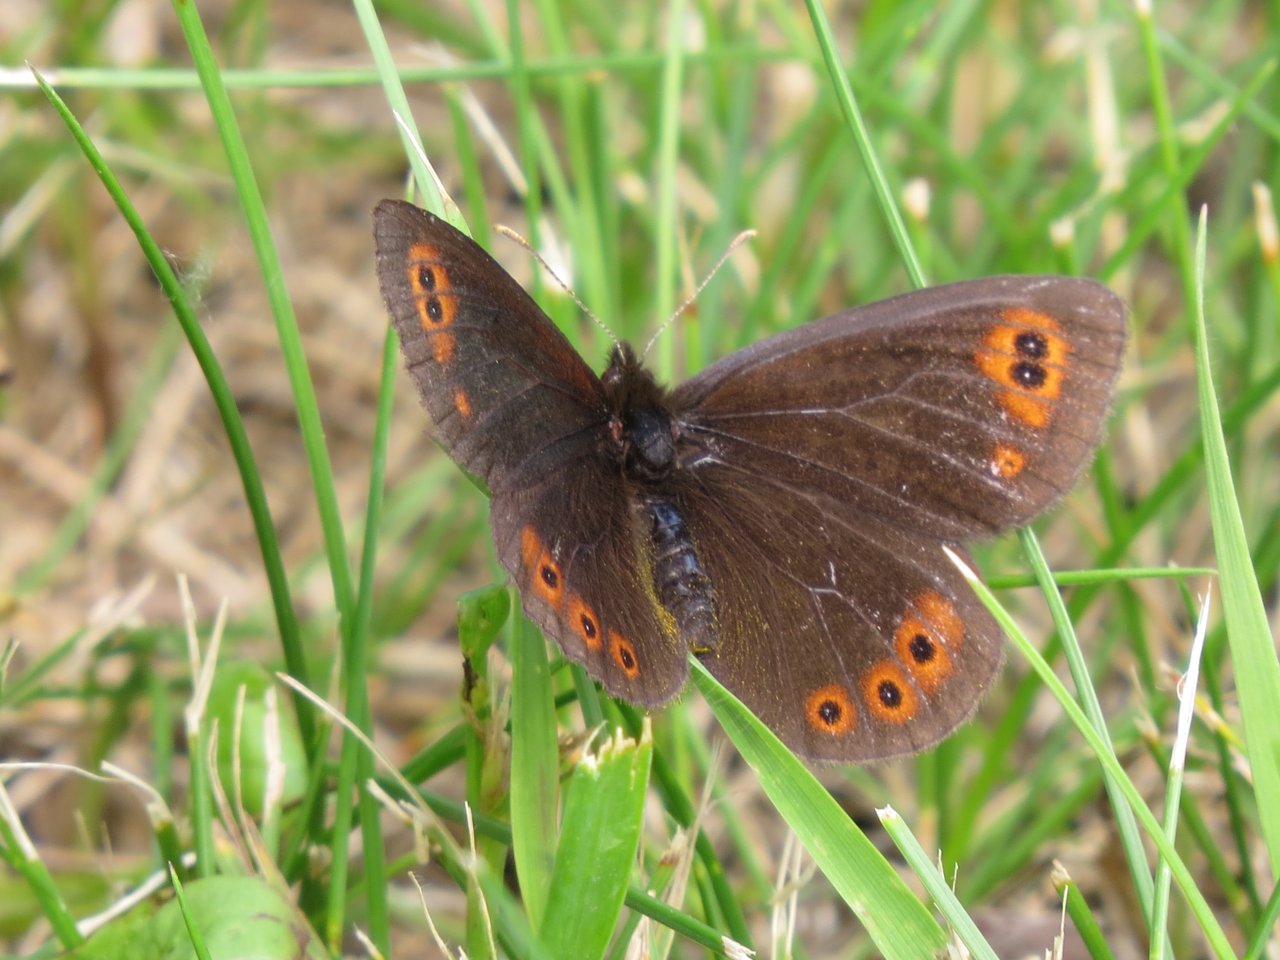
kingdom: Animalia
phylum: Arthropoda
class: Insecta
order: Lepidoptera
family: Nymphalidae
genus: Erebia
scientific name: Erebia epipsodea
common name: Common Alpine
